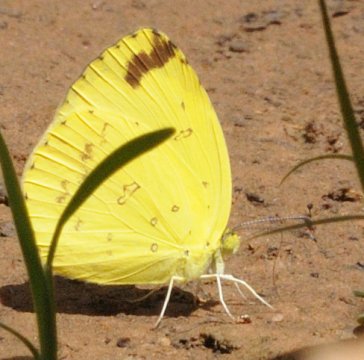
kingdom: Animalia
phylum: Arthropoda
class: Insecta
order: Lepidoptera
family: Pieridae
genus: Eurema
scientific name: Eurema hapale
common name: Marsh Grass Yellow
